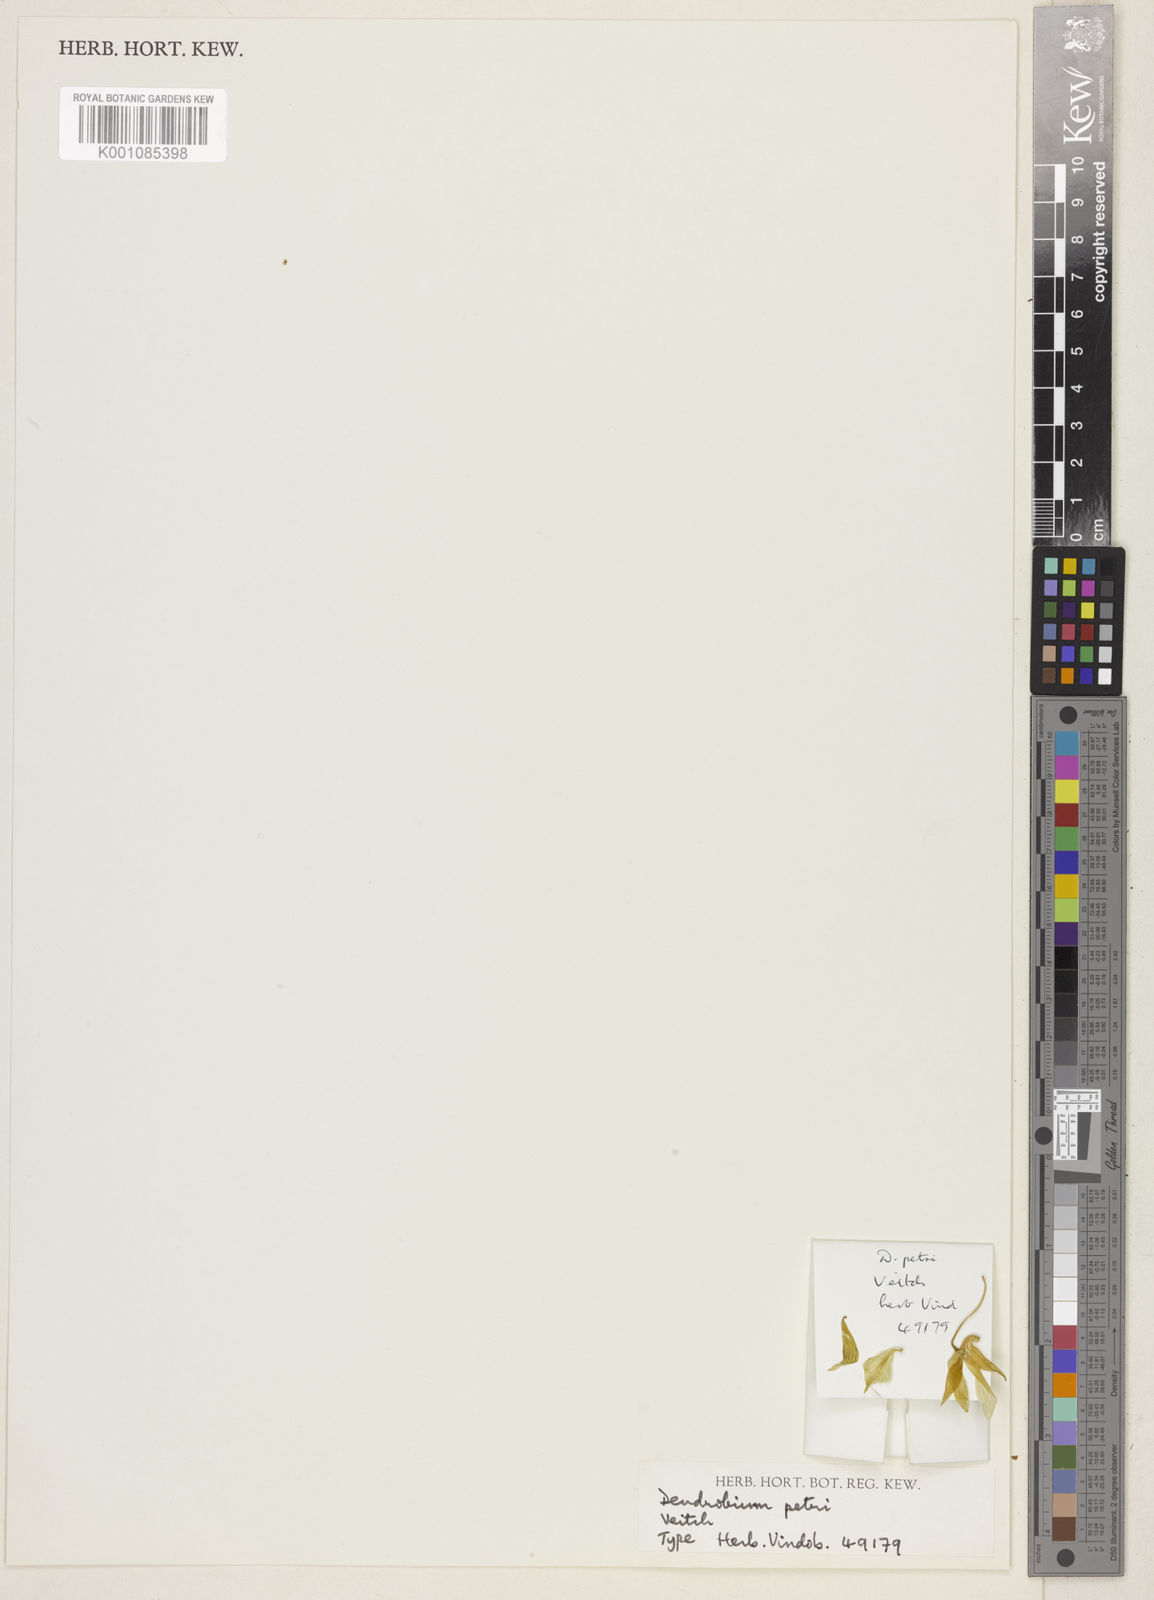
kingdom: Plantae
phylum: Tracheophyta
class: Liliopsida
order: Asparagales
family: Orchidaceae
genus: Dendrobium
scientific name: Dendrobium mooreanum
